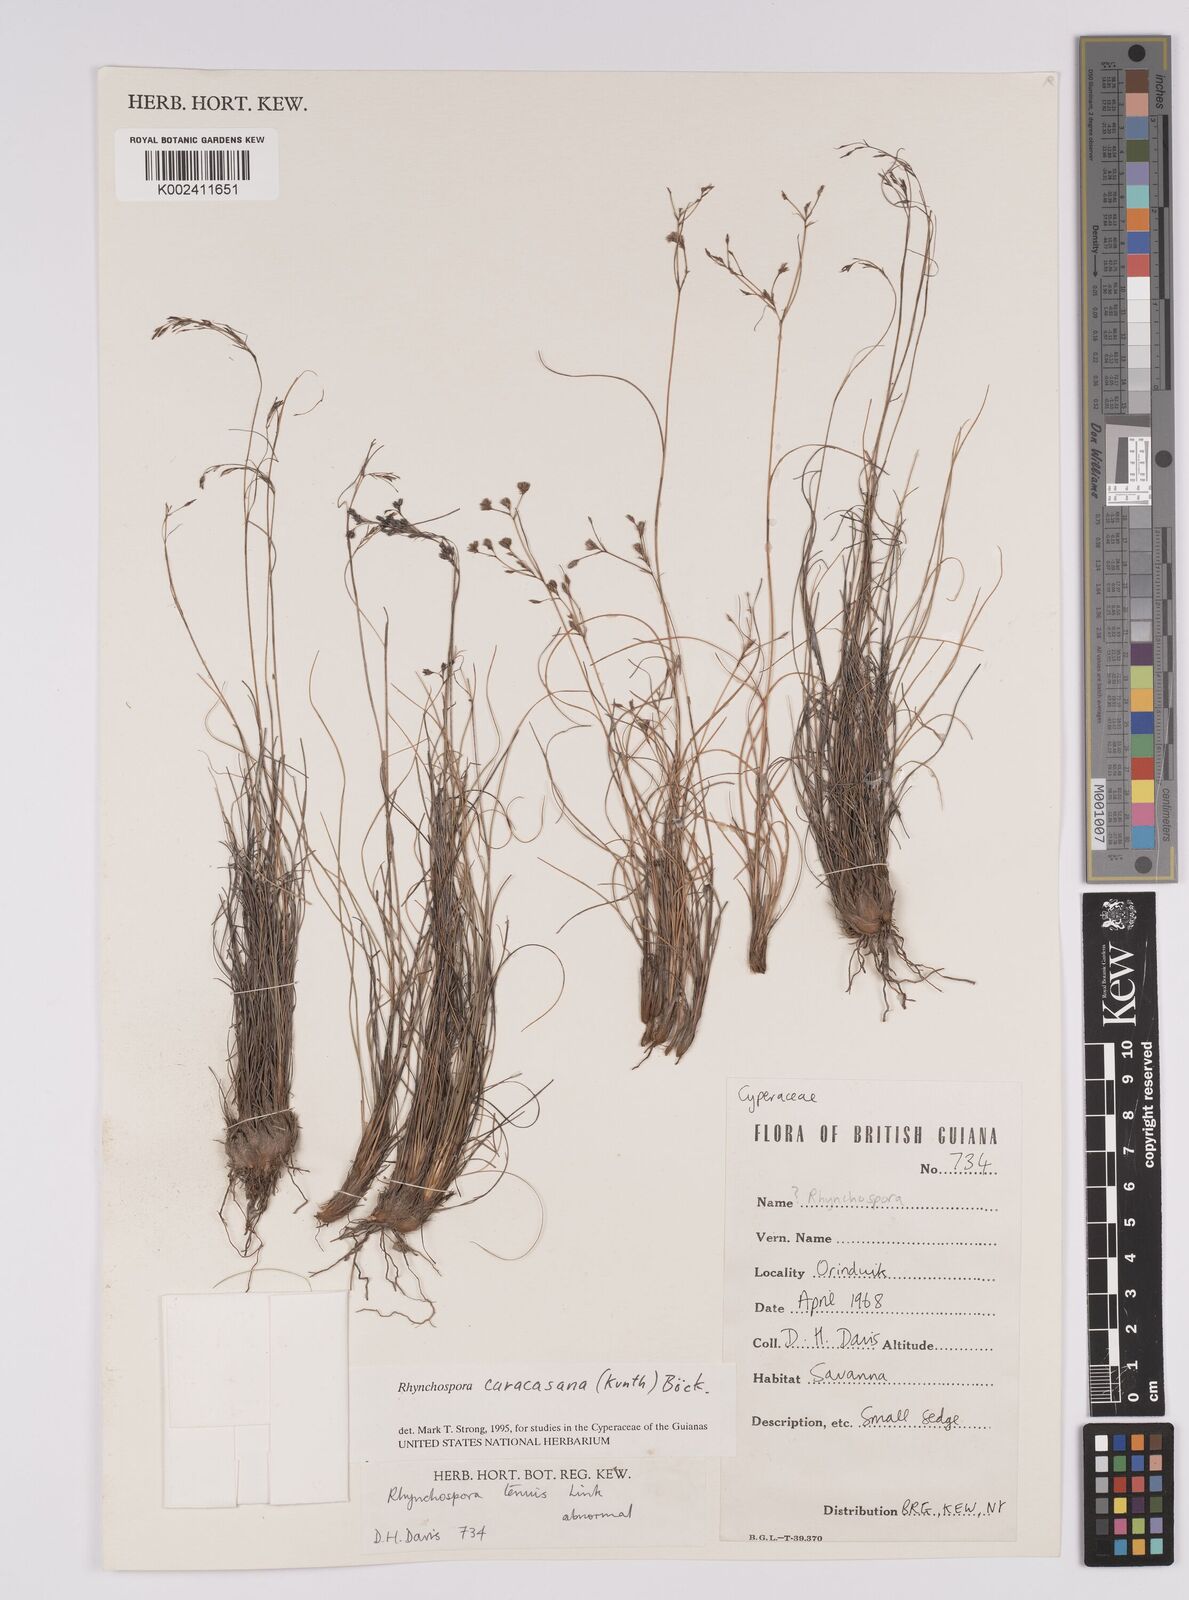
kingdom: Plantae
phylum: Tracheophyta
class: Liliopsida
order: Poales
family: Cyperaceae
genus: Rhynchospora
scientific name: Rhynchospora caracasana
